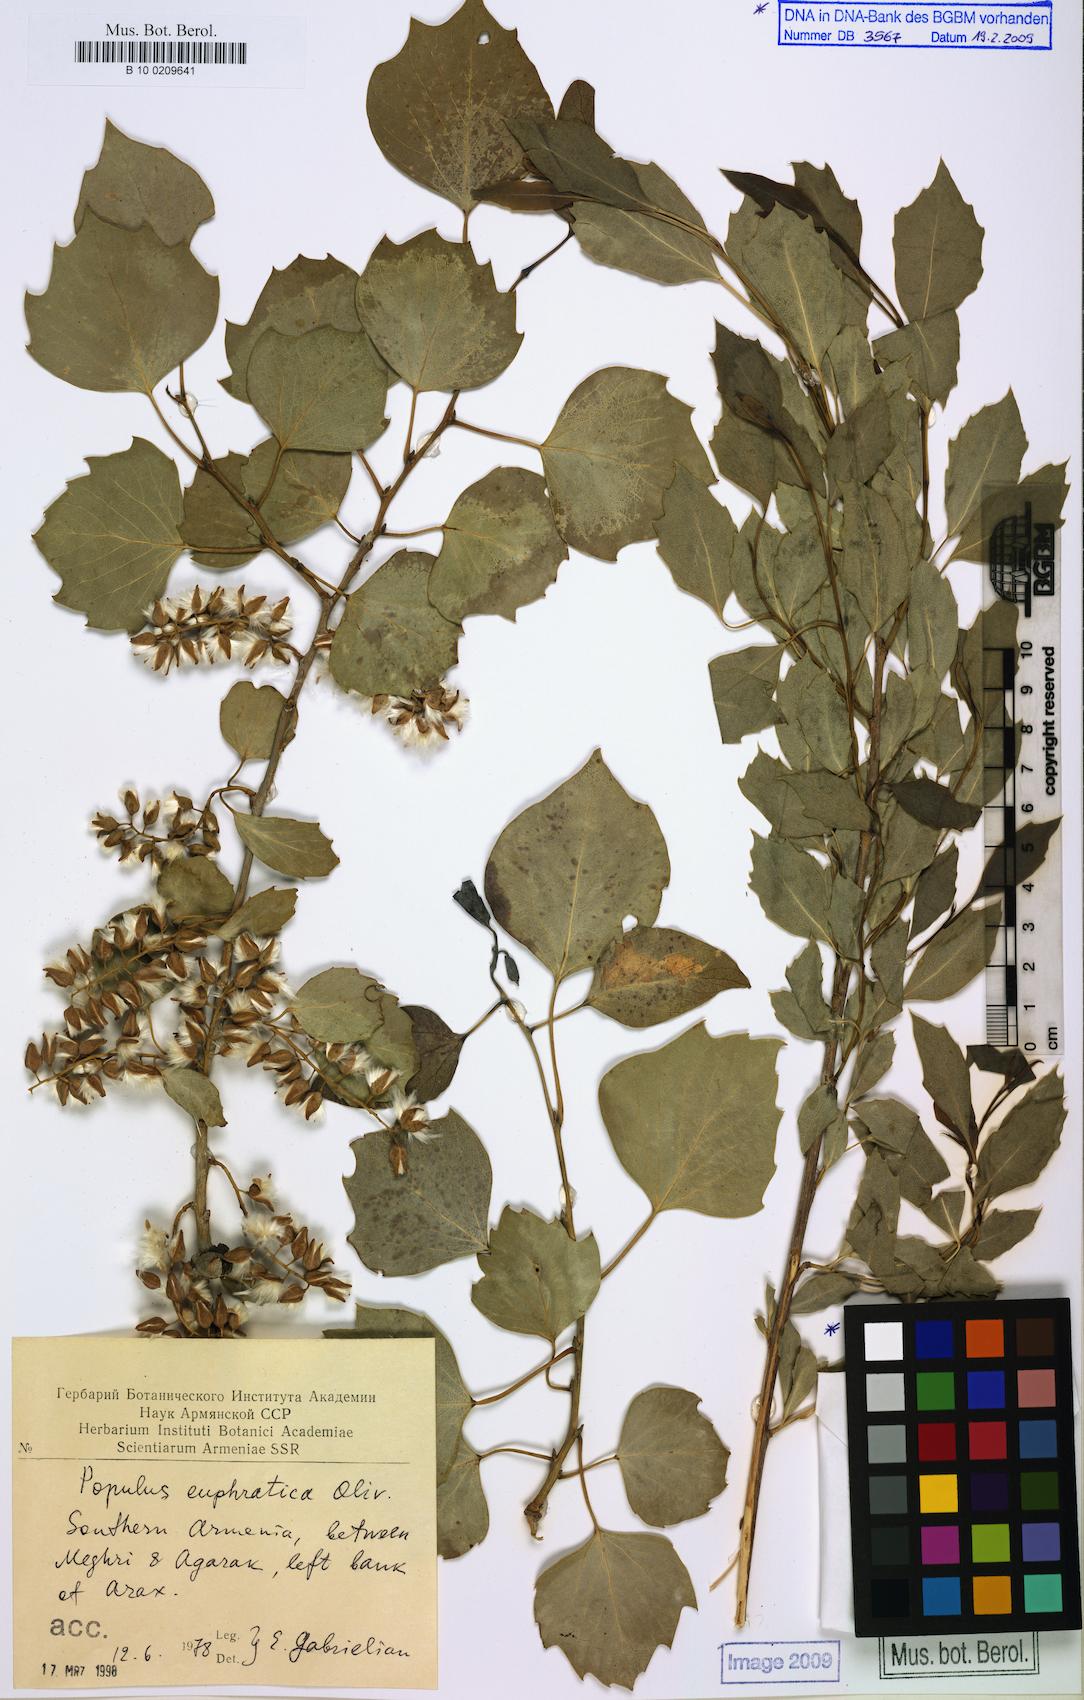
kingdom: Plantae
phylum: Tracheophyta
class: Magnoliopsida
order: Malpighiales
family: Salicaceae
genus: Populus
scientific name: Populus euphratica
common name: Euphrates poplar
